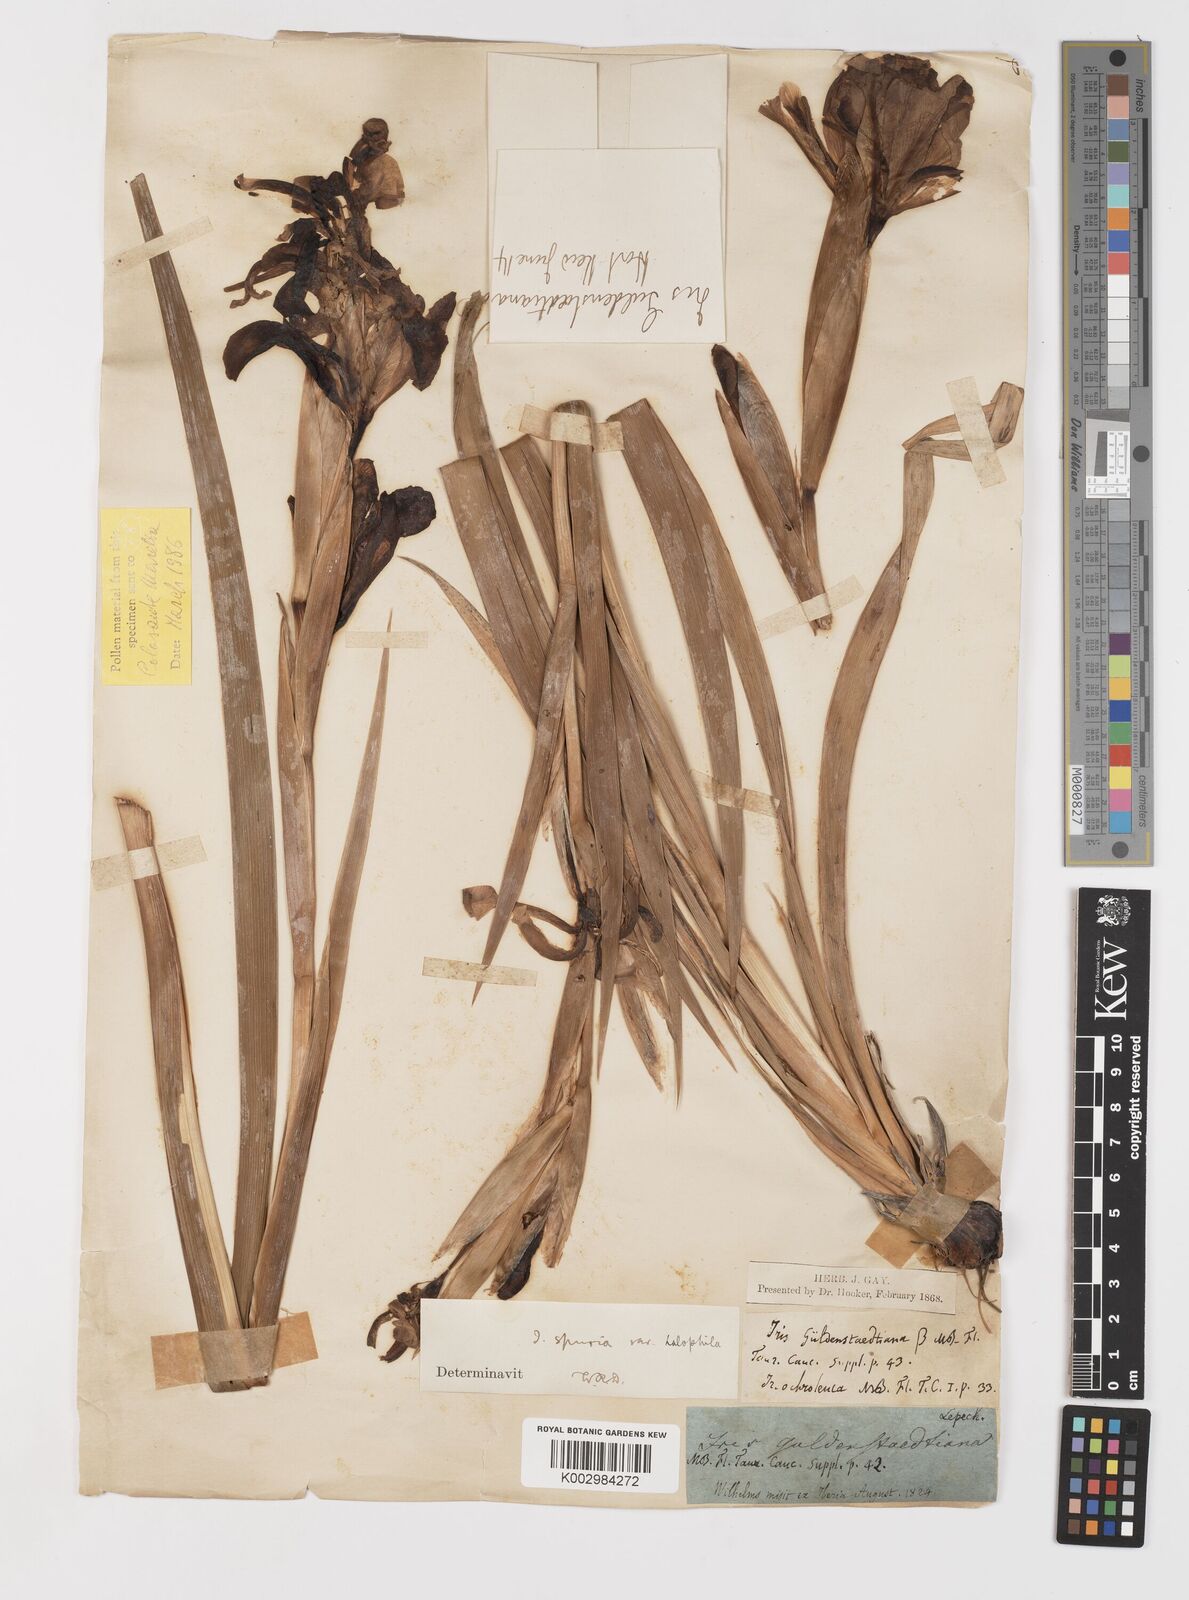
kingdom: Plantae
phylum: Tracheophyta
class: Liliopsida
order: Asparagales
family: Iridaceae
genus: Iris
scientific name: Iris spuria
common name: Blue iris
